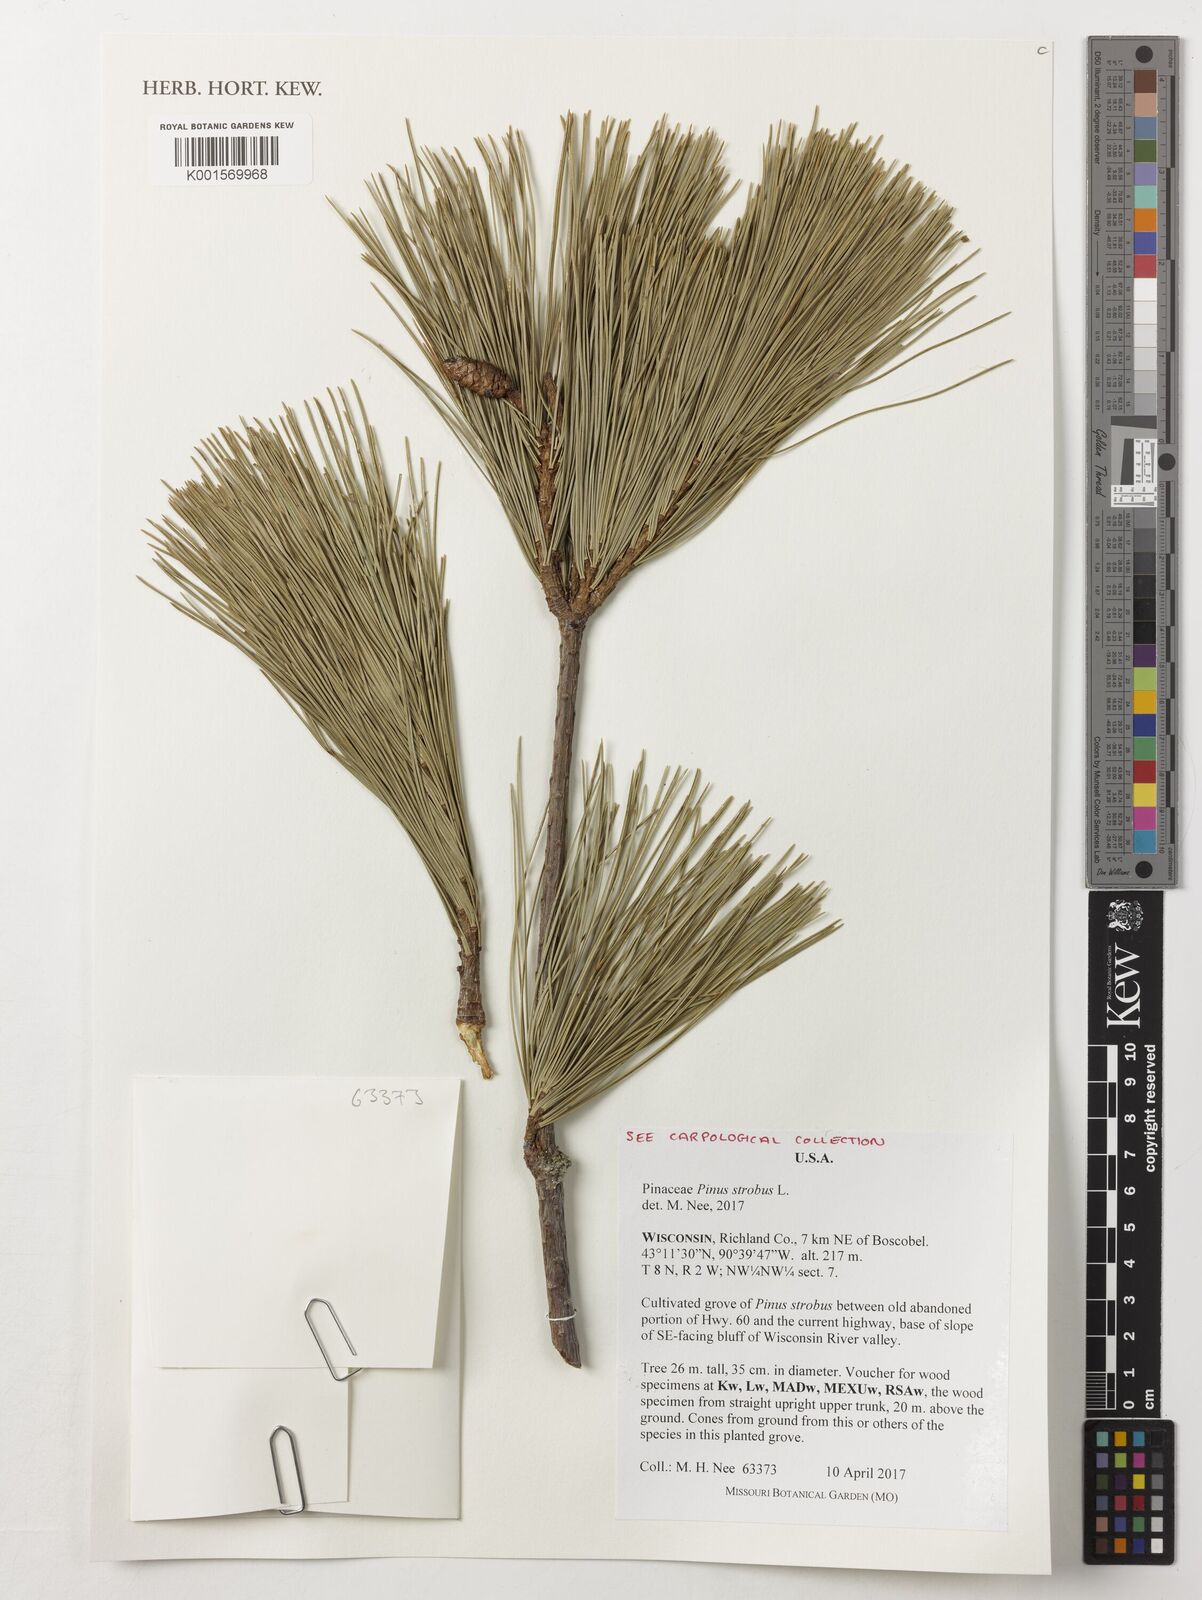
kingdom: Plantae
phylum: Tracheophyta
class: Pinopsida
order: Pinales
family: Pinaceae
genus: Pinus
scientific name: Pinus strobus
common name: Weymouth pine
